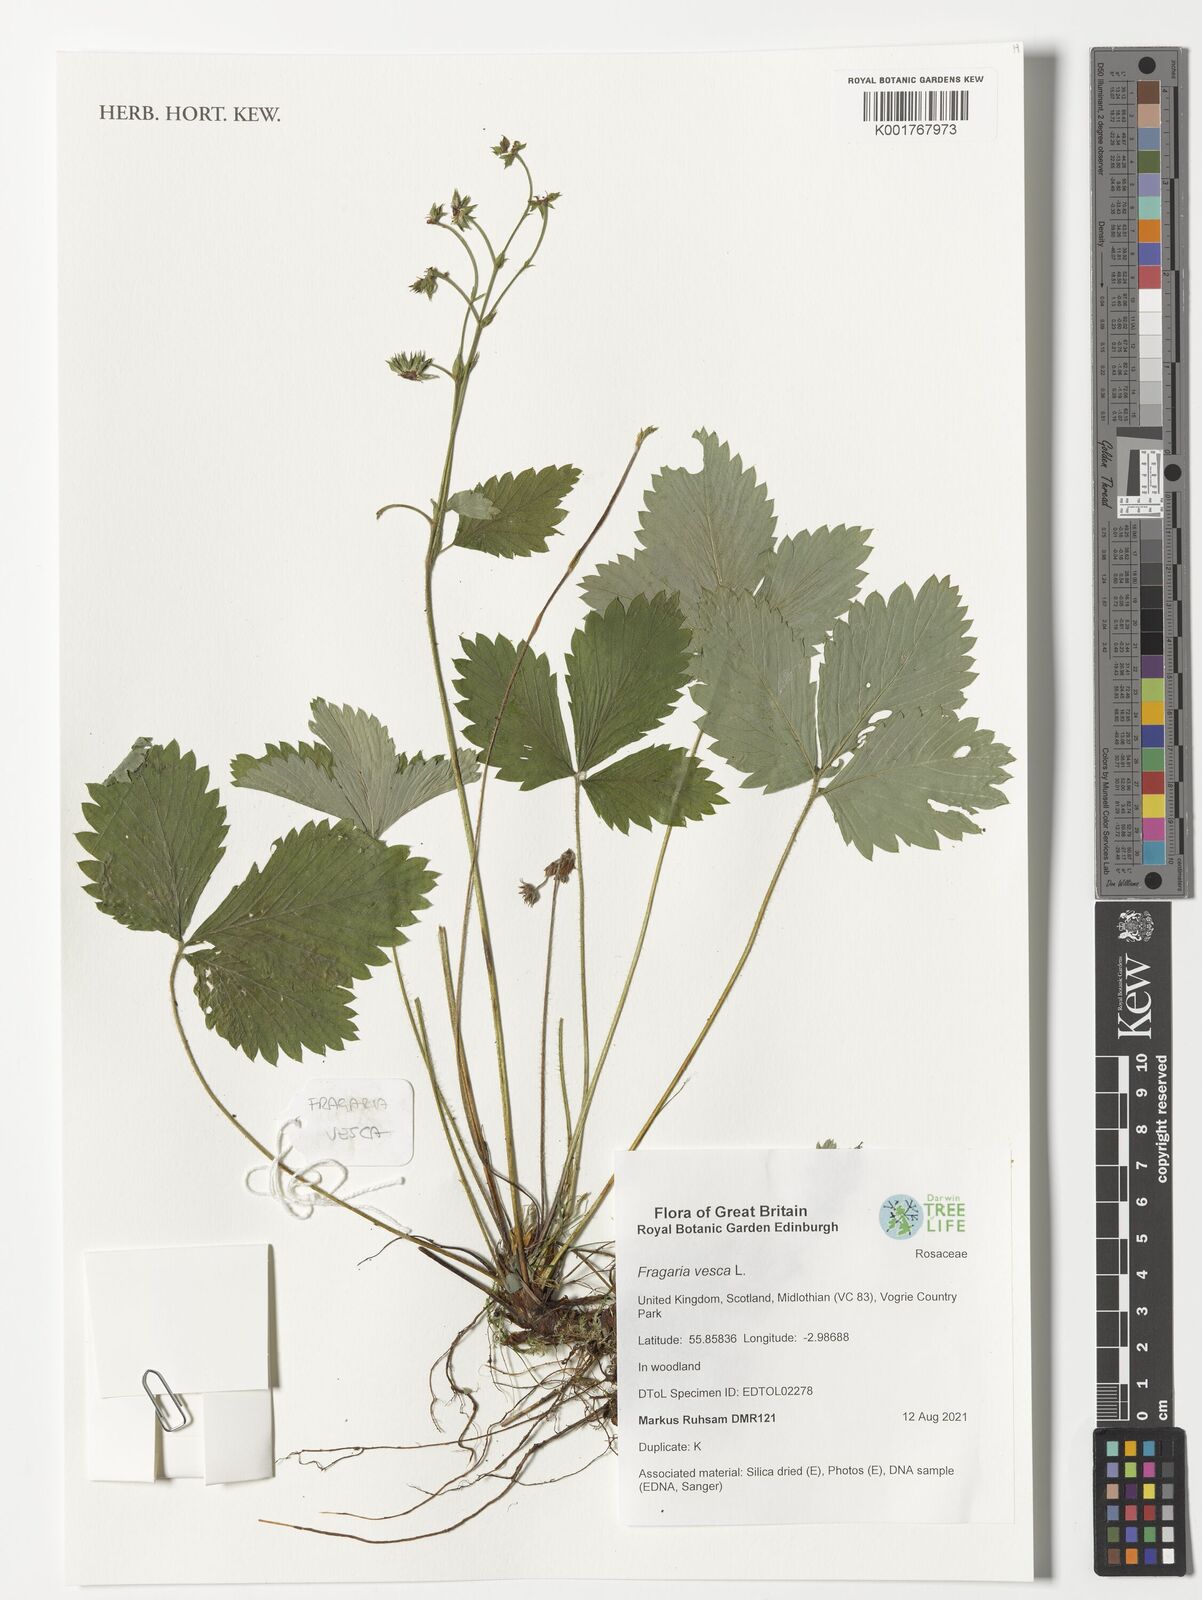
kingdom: Plantae
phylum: Tracheophyta
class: Magnoliopsida
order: Rosales
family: Rosaceae
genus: Fragaria
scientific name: Fragaria vesca
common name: Wild strawberry
